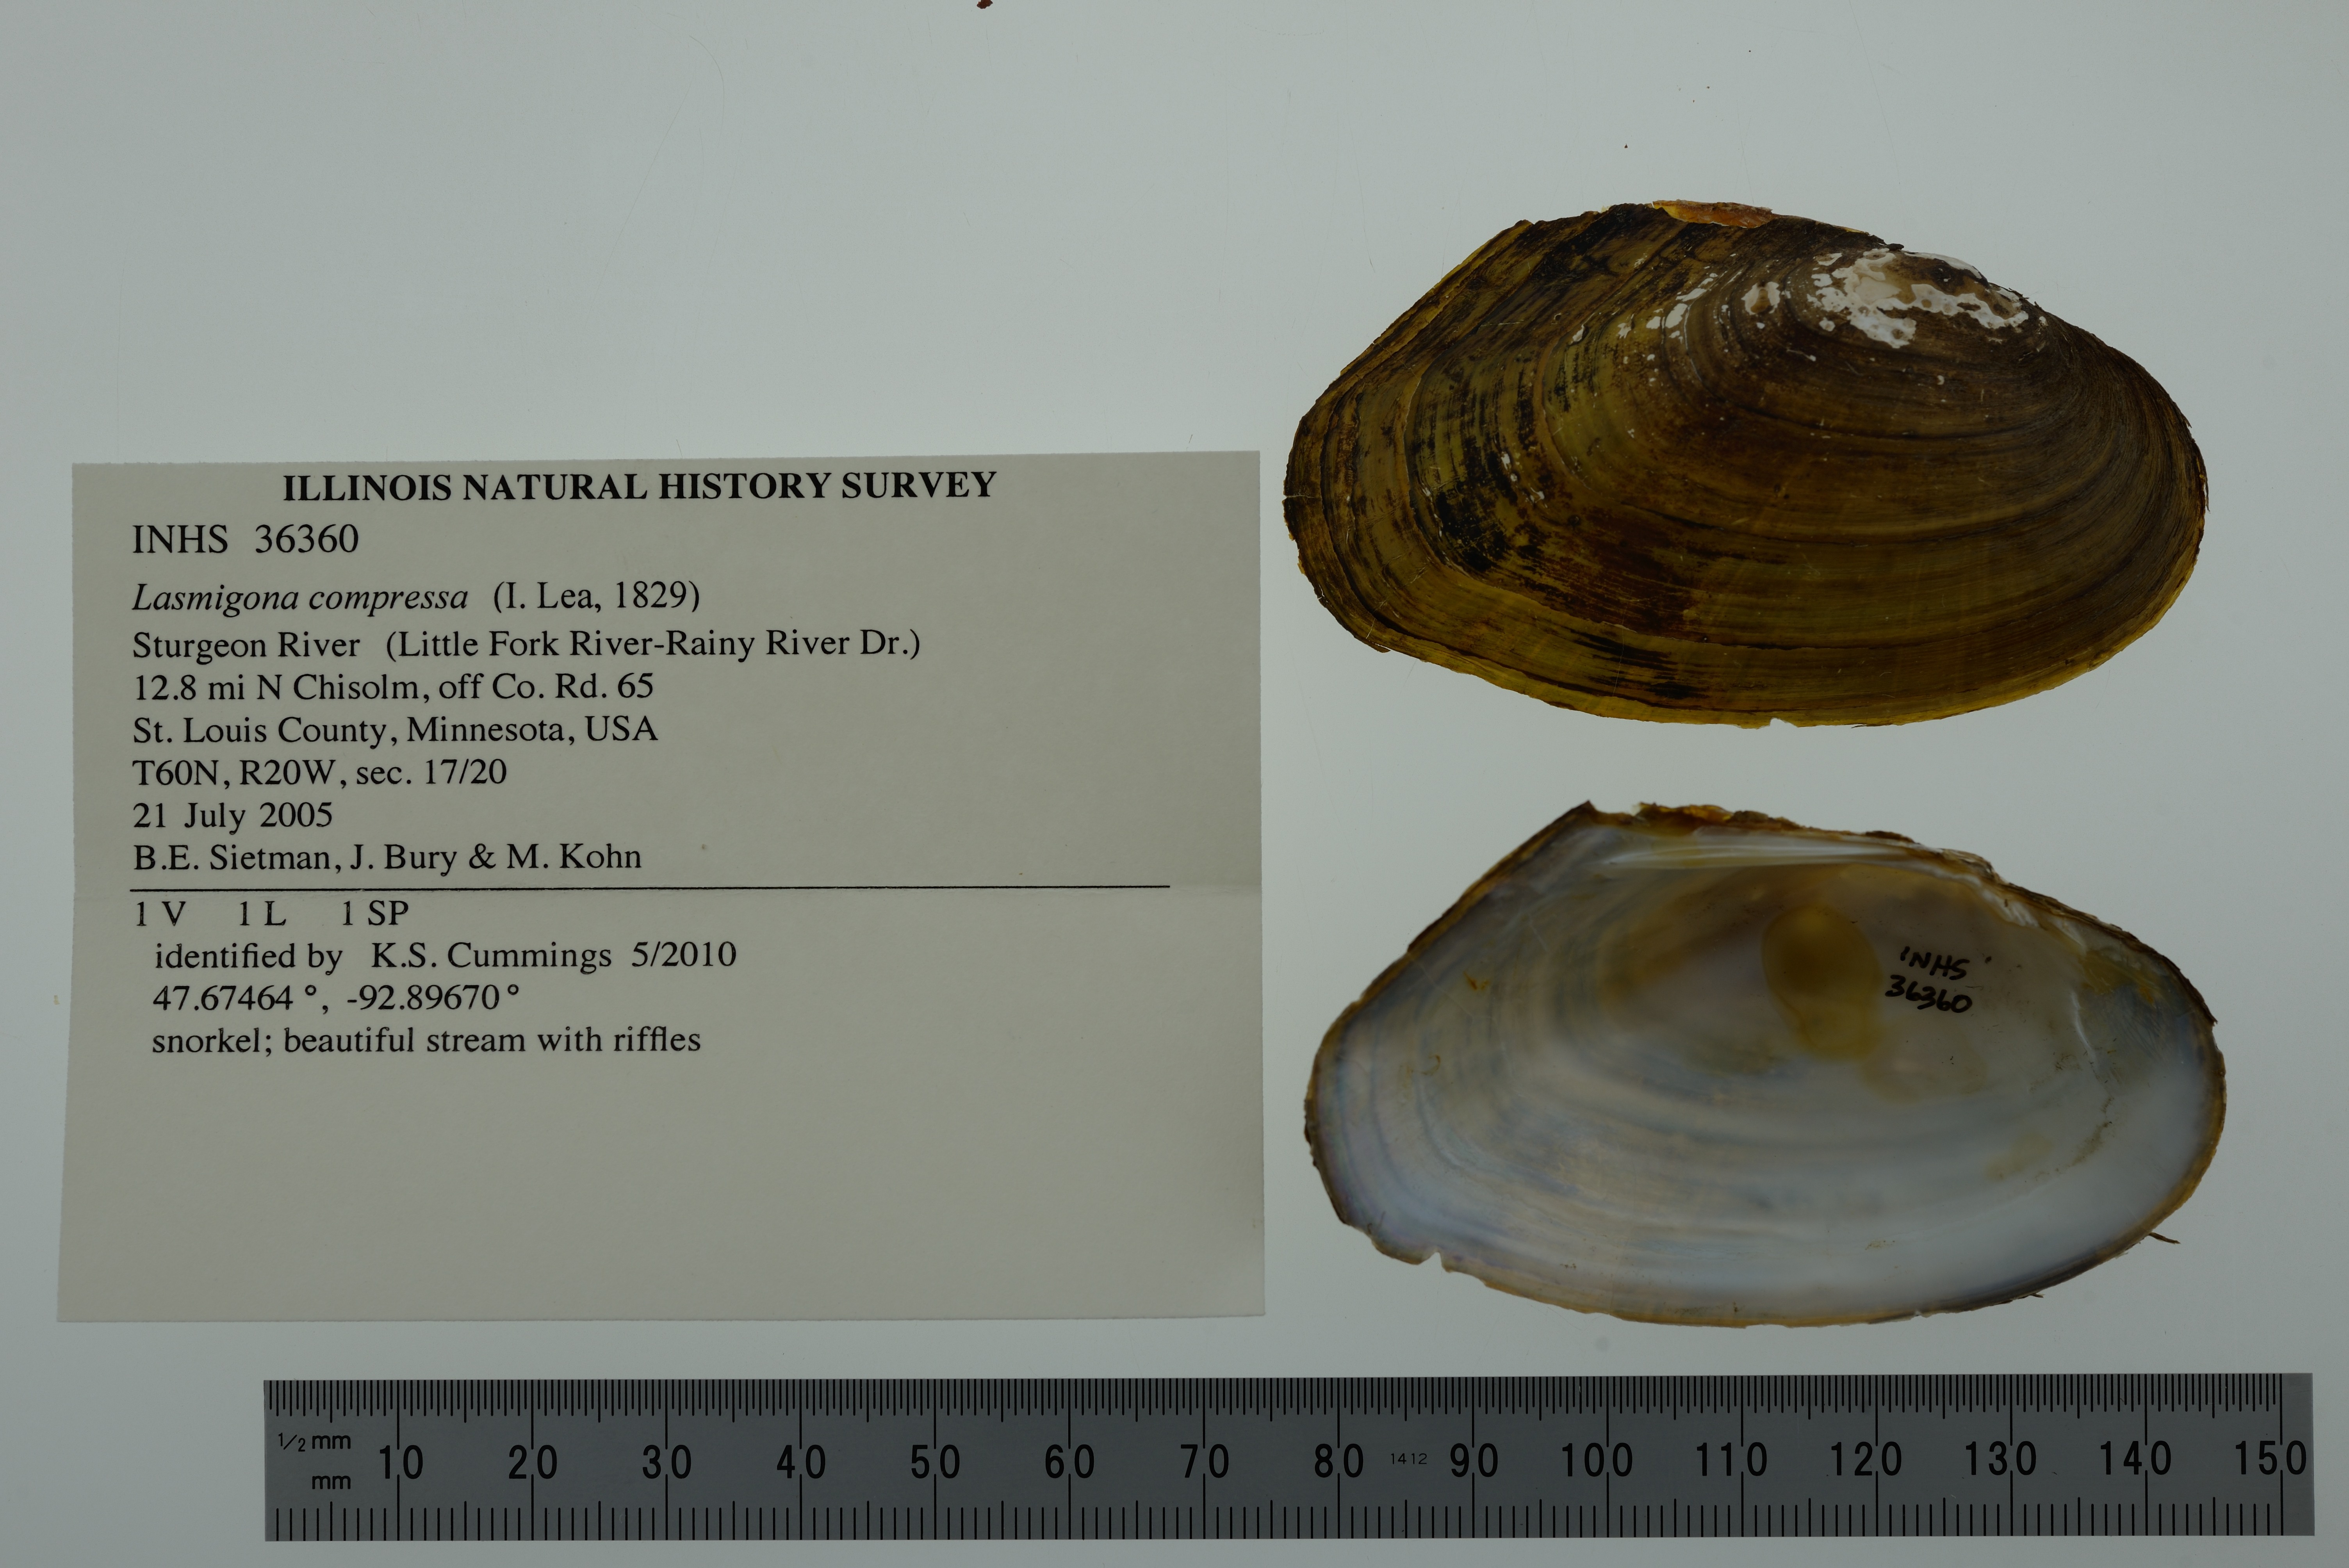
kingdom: Animalia
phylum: Mollusca
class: Bivalvia
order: Unionida
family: Unionidae
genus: Lasmigona
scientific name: Lasmigona compressa
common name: Creek heelsplitter
